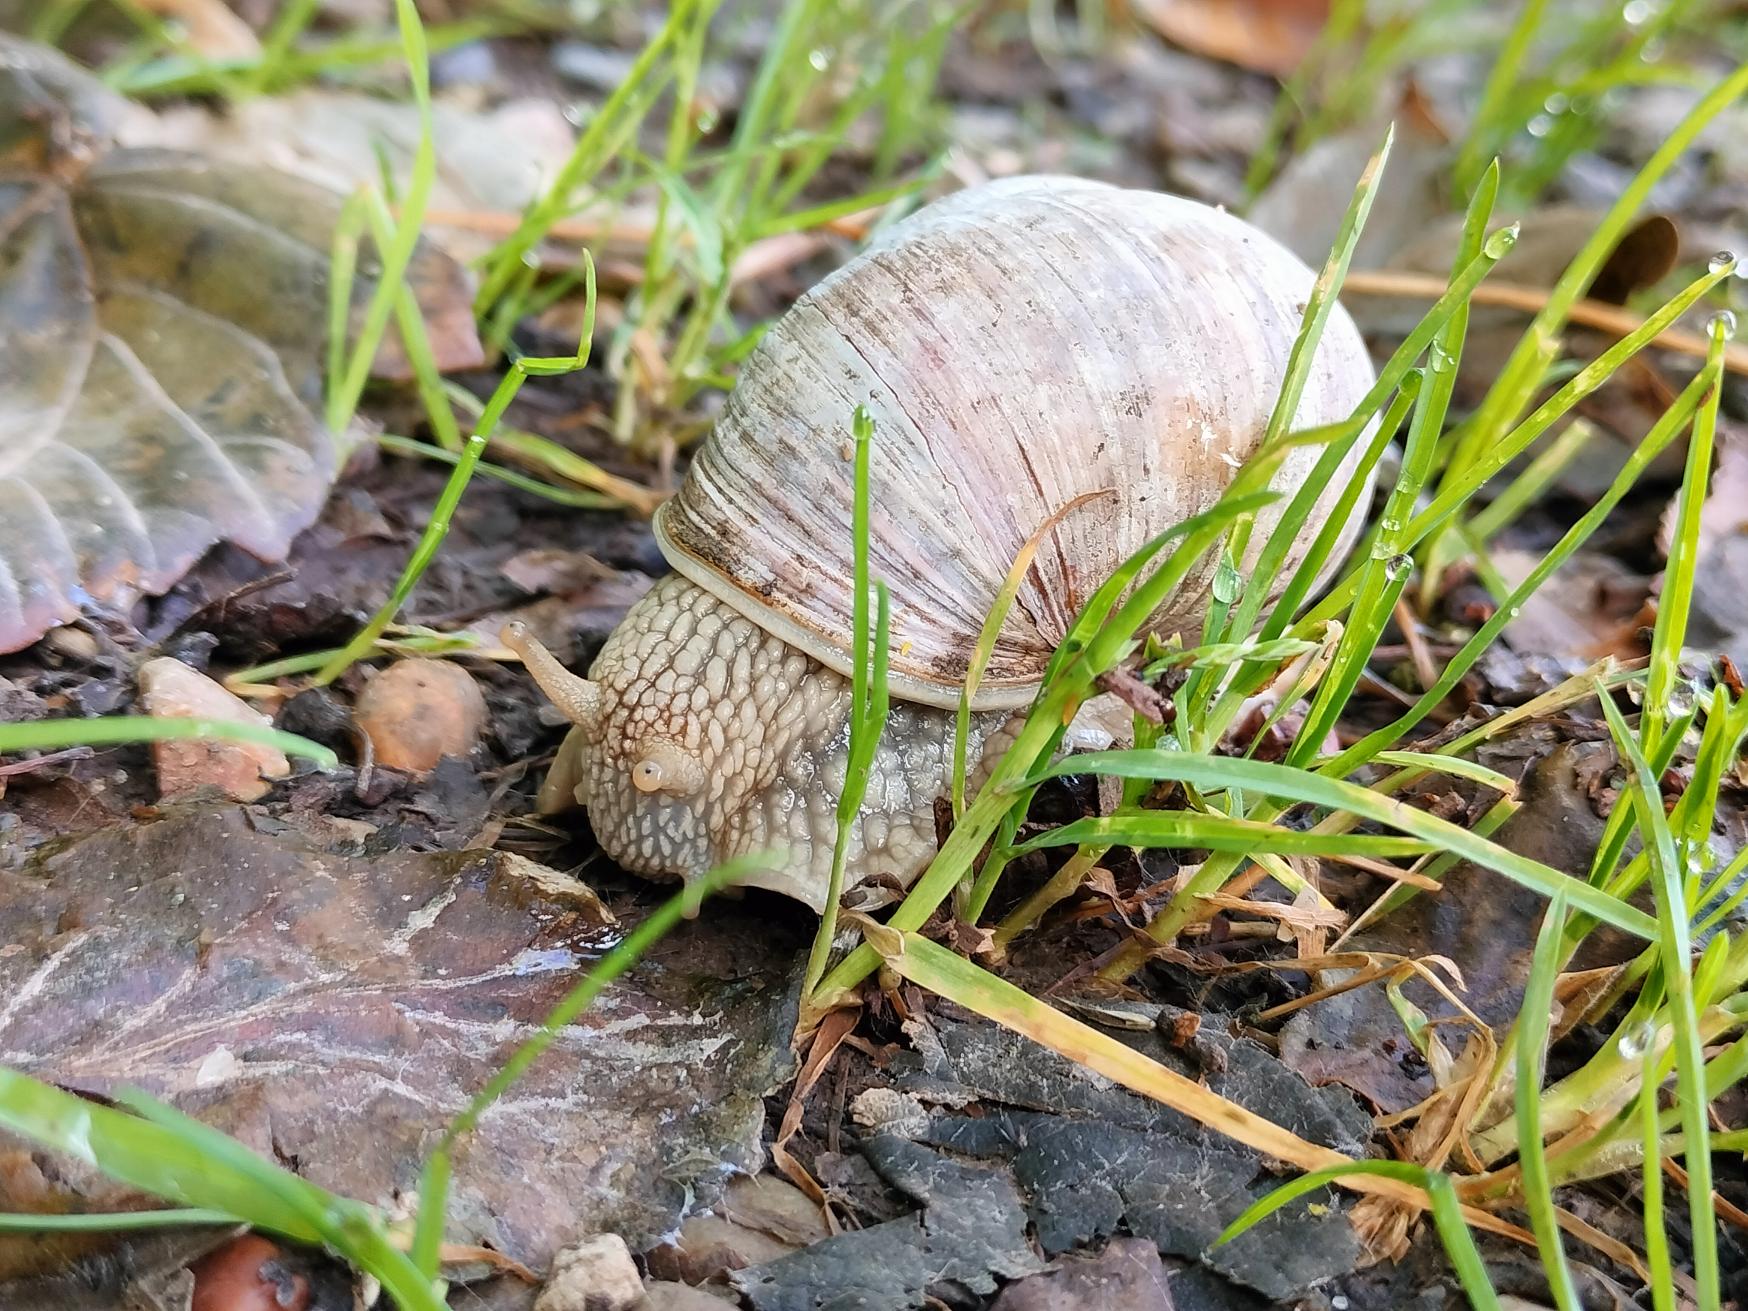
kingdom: Animalia
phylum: Mollusca
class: Gastropoda
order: Stylommatophora
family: Helicidae
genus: Helix
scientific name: Helix pomatia
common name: Vinbjergsnegl
